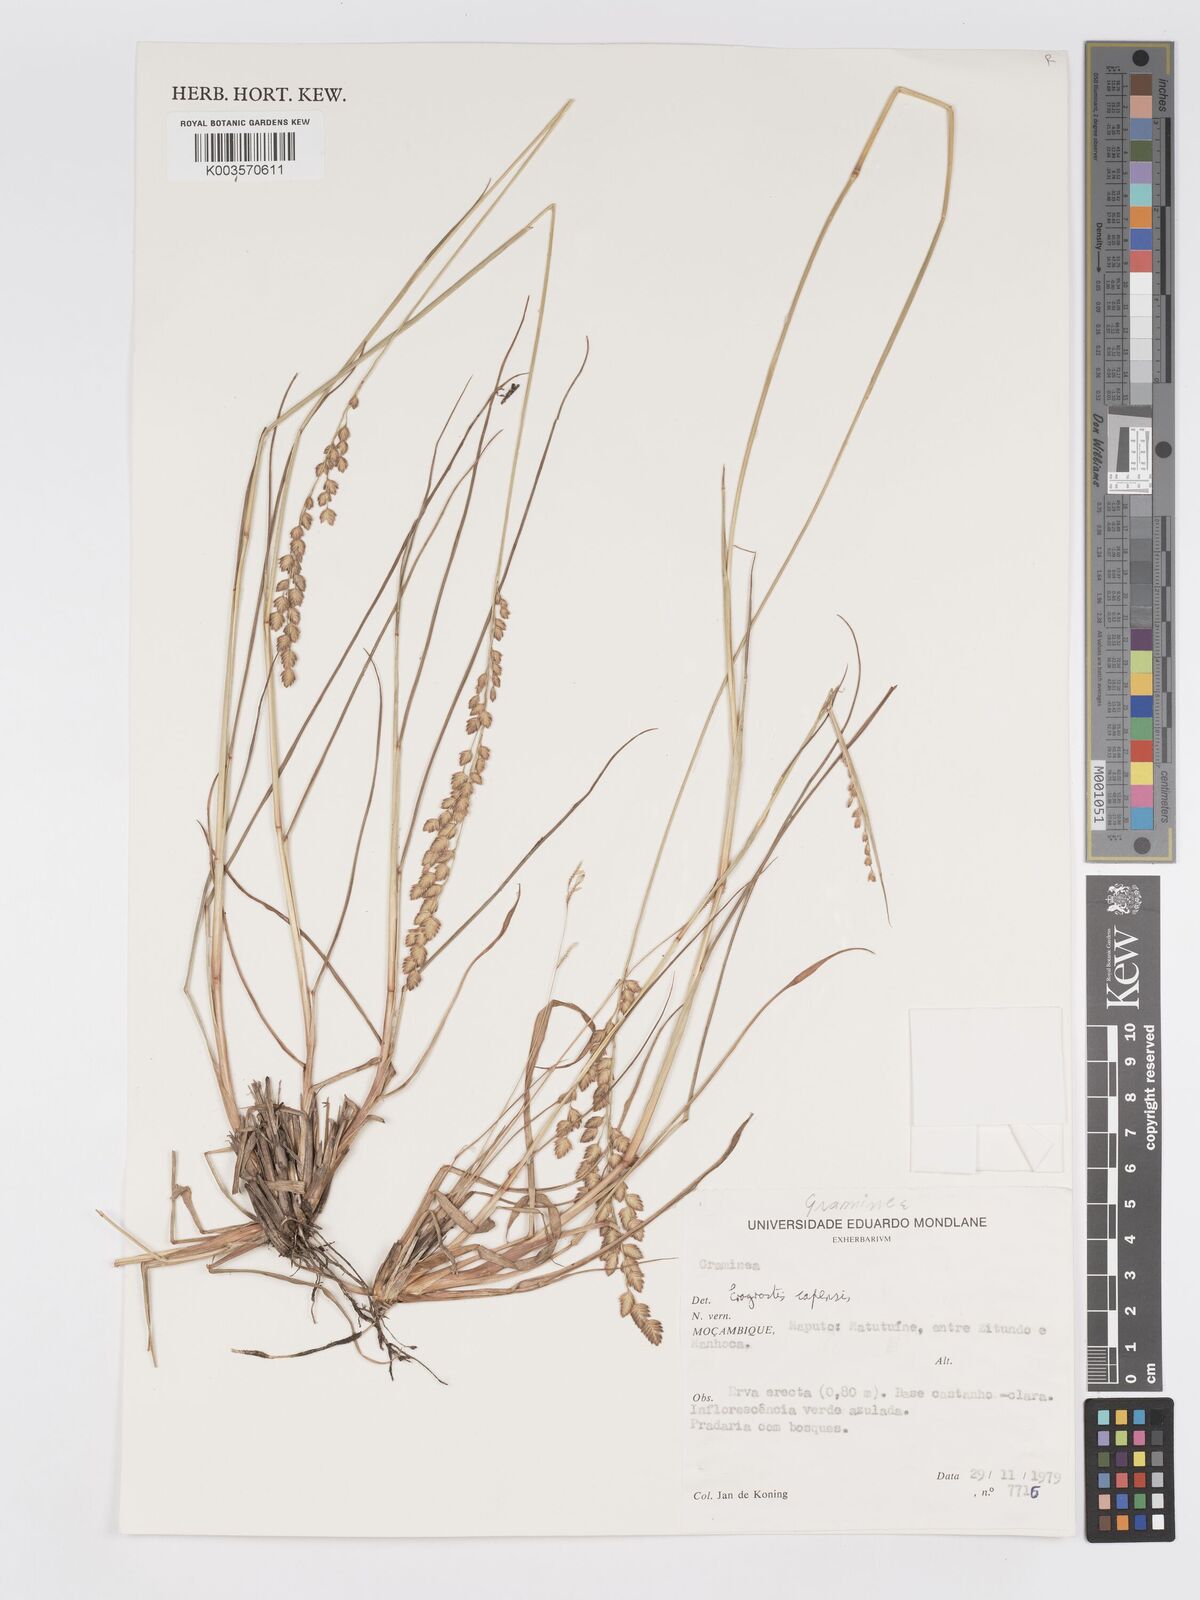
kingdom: Plantae
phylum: Tracheophyta
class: Liliopsida
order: Poales
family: Poaceae
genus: Eragrostis
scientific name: Eragrostis capensis
